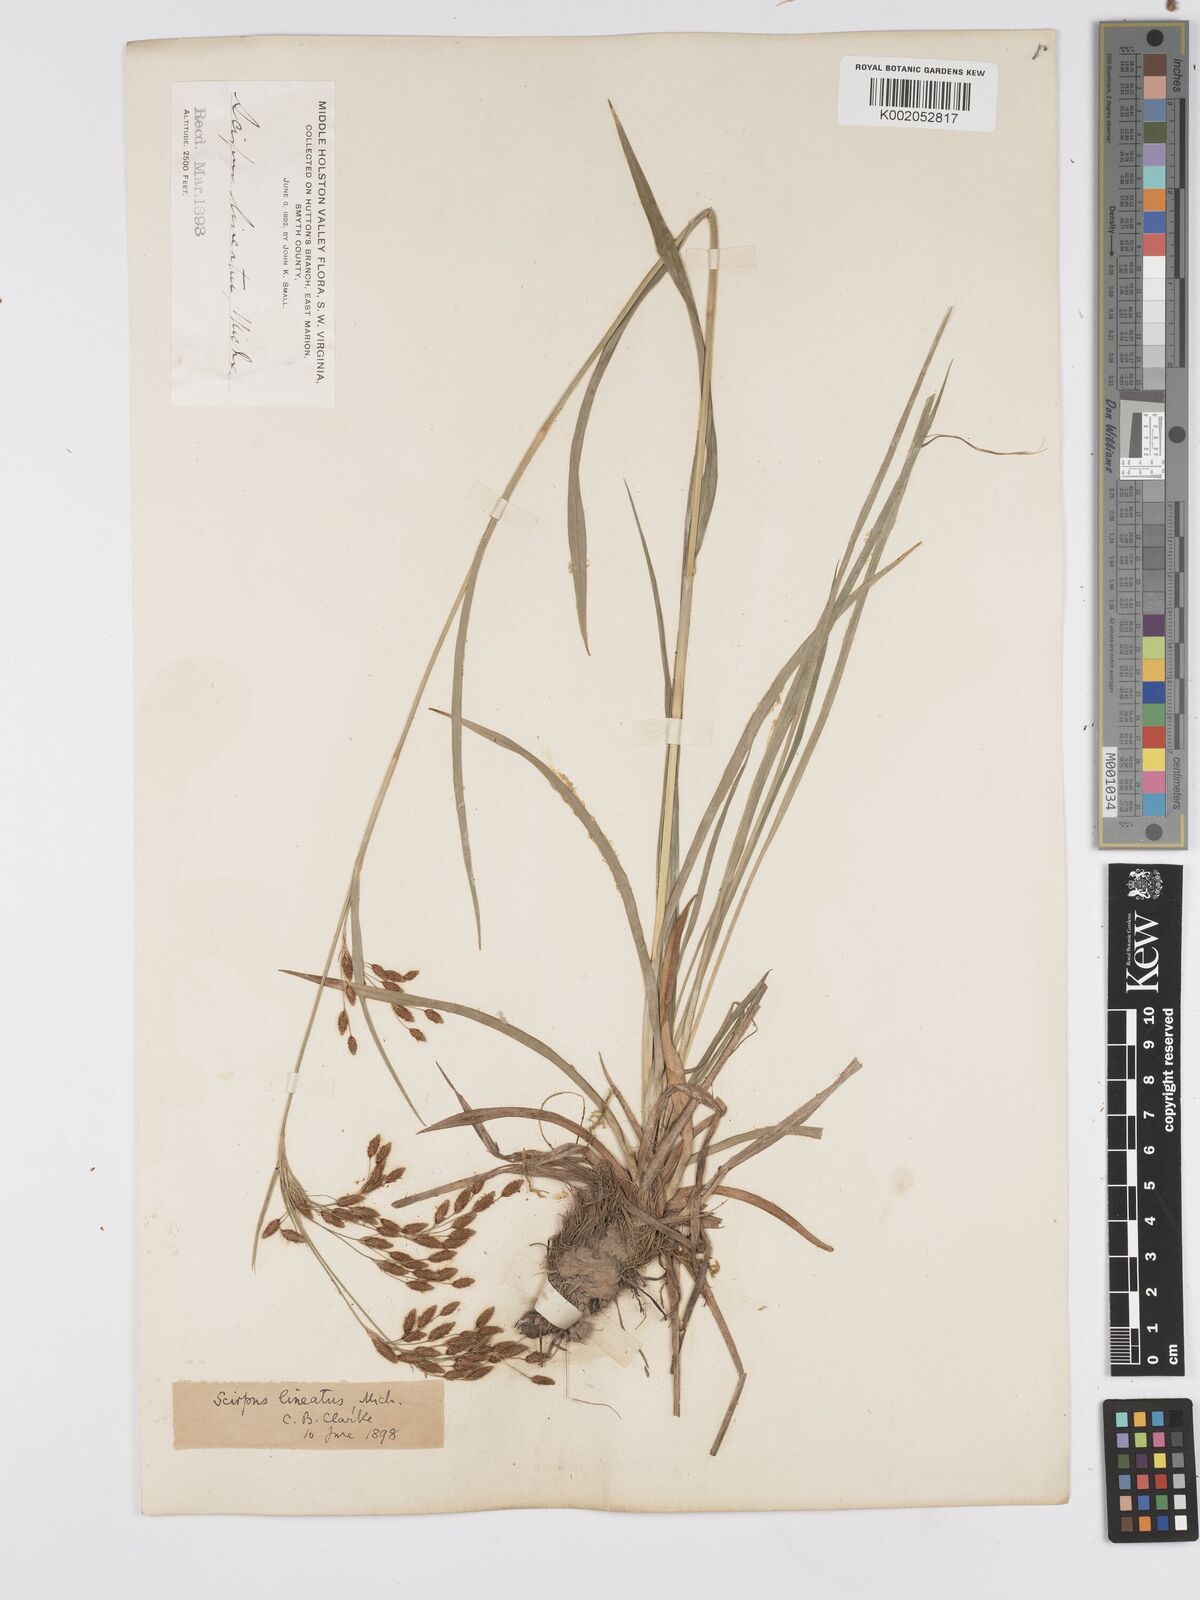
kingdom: Plantae
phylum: Tracheophyta
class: Liliopsida
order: Poales
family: Cyperaceae
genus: Scirpus
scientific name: Scirpus lineatus
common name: Drooping bulrush
